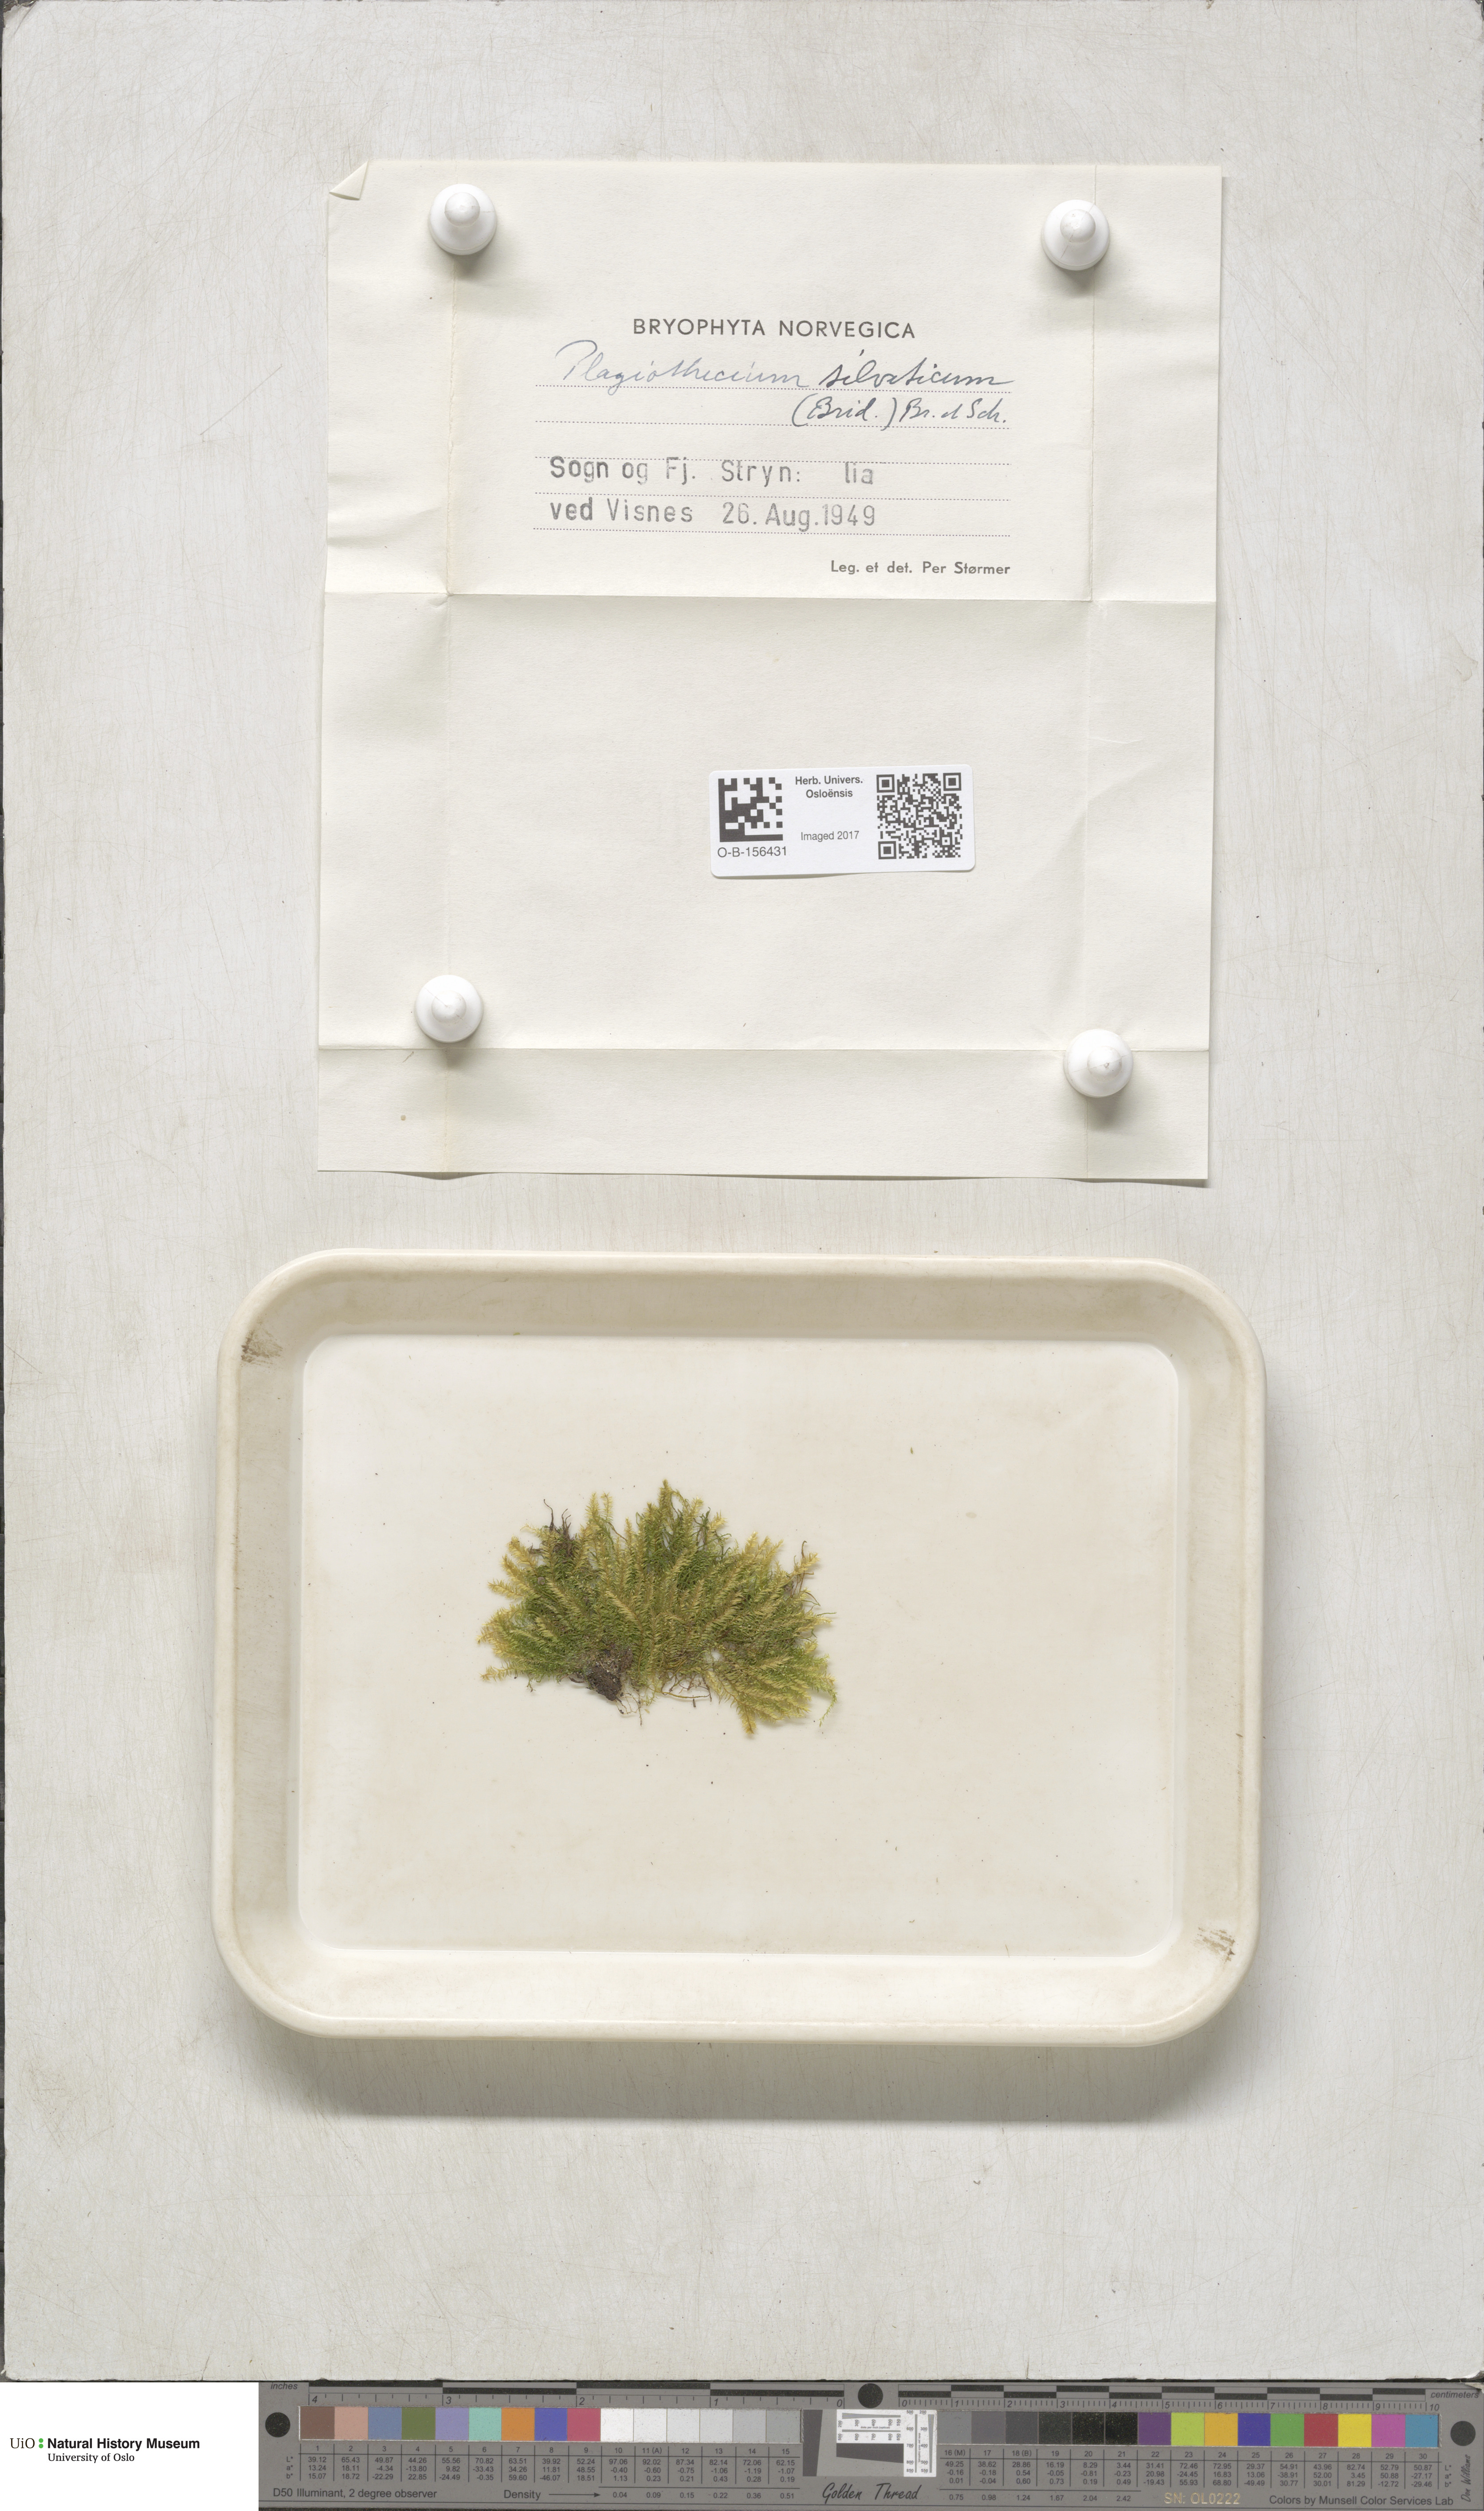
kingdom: Plantae
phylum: Bryophyta
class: Bryopsida
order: Hypnales
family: Plagiotheciaceae
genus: Plagiothecium
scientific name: Plagiothecium nemorale
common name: Woodsy silk-moss
